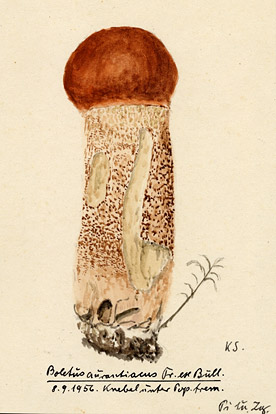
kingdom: Fungi
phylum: Basidiomycota
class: Agaricomycetes
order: Boletales
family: Boletaceae
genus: Leccinum
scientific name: Leccinum aurantiacum
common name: Orange bolete
